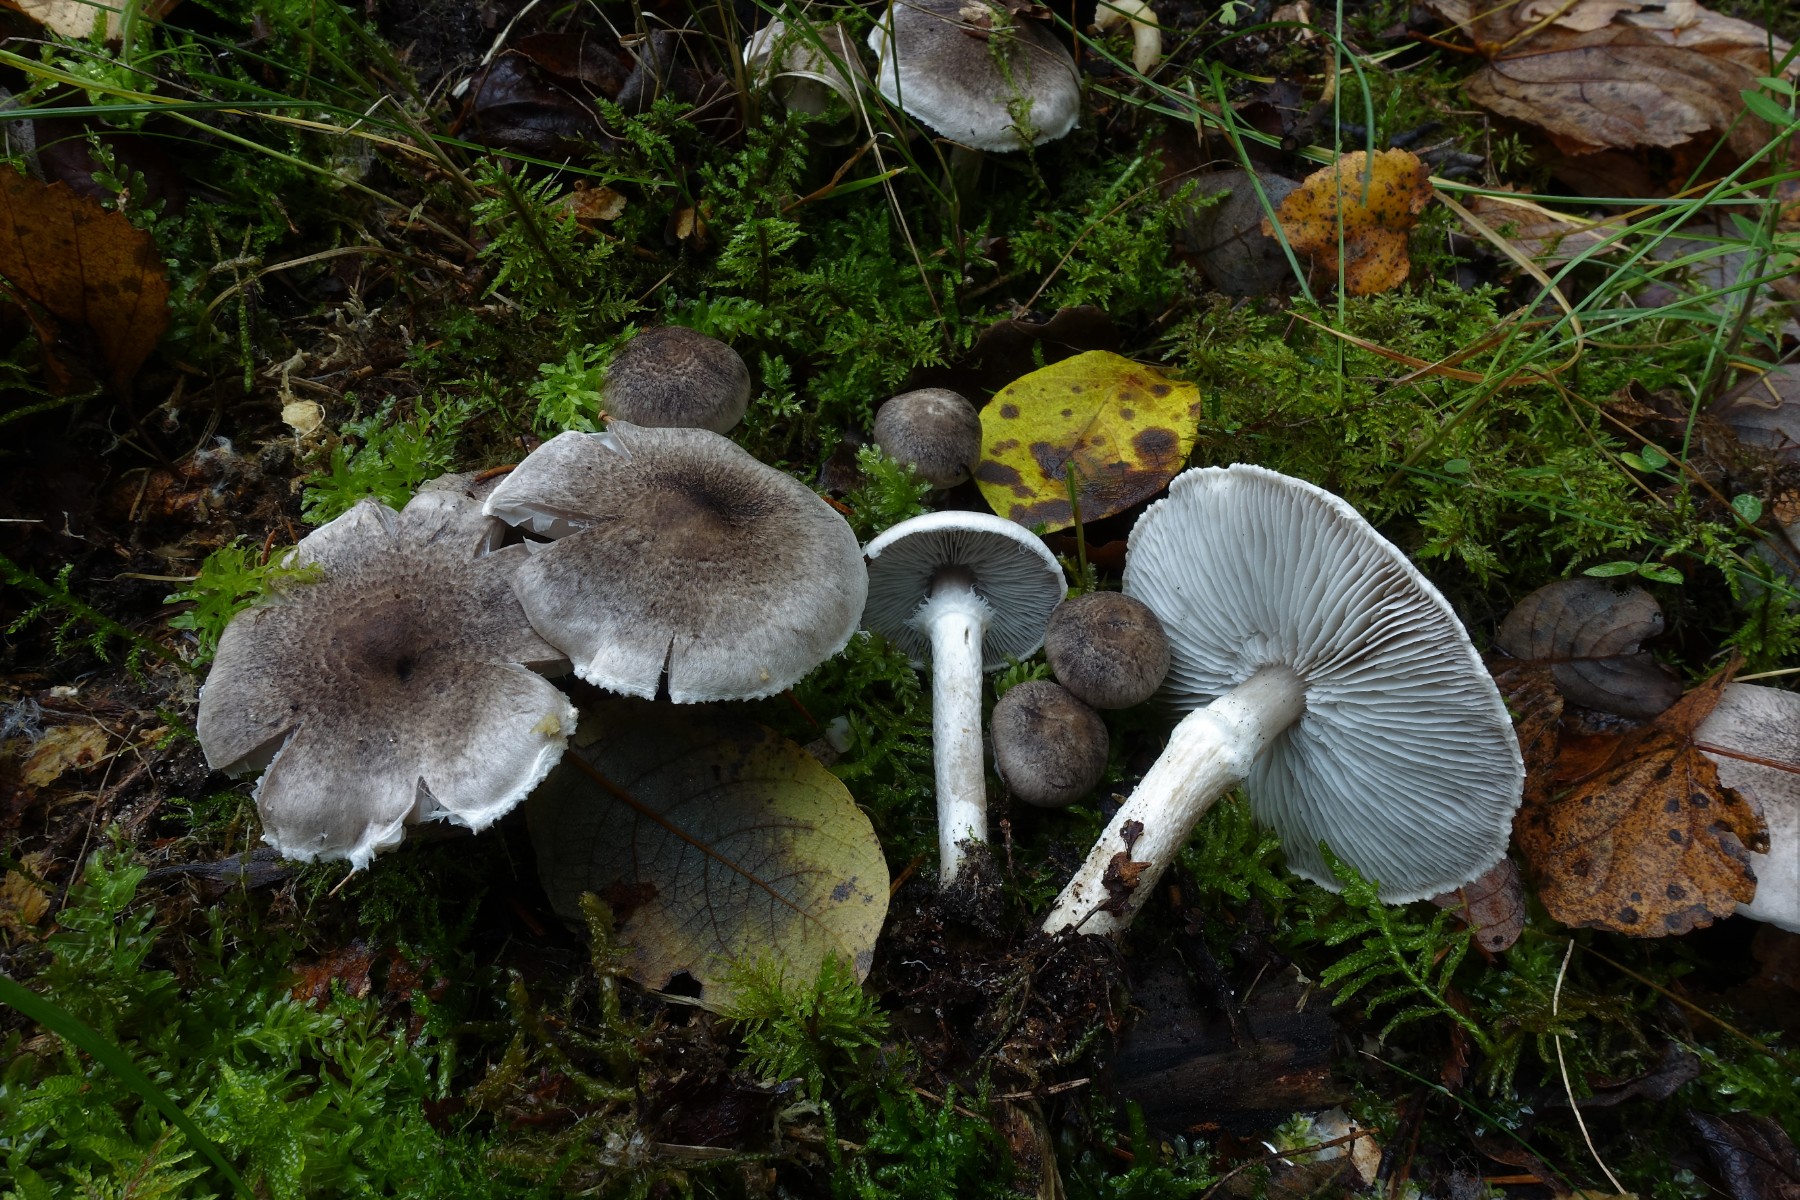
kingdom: Fungi
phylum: Basidiomycota
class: Agaricomycetes
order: Agaricales
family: Tricholomataceae
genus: Tricholoma
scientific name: Tricholoma cingulatum
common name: ring-ridderhat
